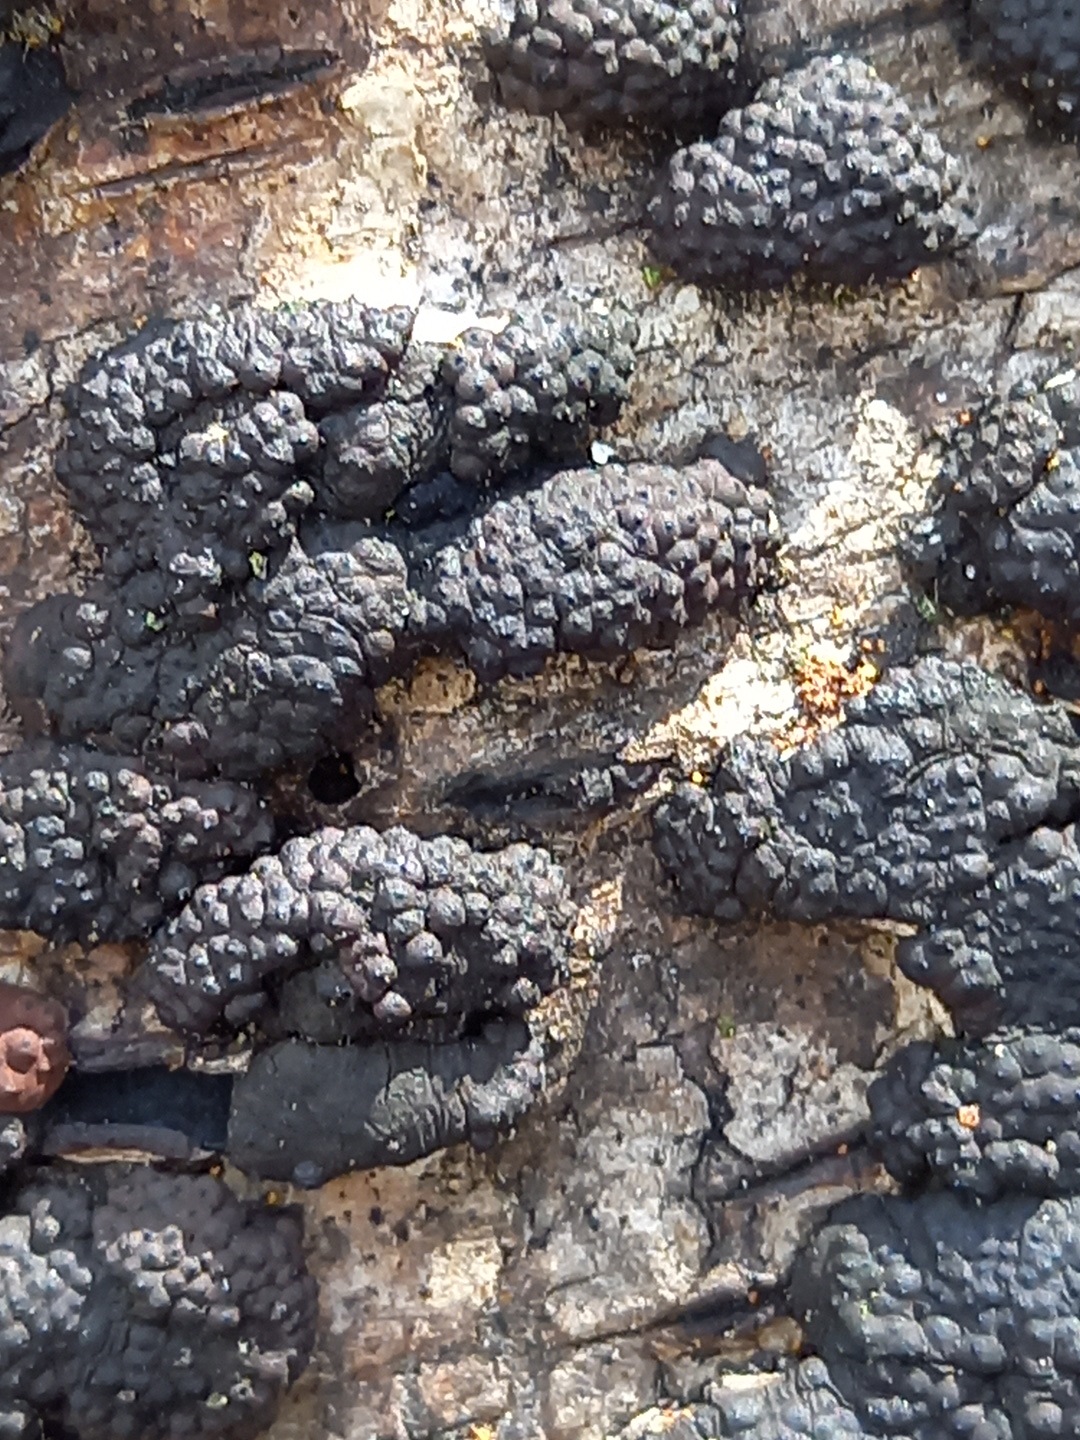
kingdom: Fungi
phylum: Ascomycota
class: Sordariomycetes
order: Xylariales
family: Hypoxylaceae
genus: Jackrogersella
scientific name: Jackrogersella multiformis
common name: foranderlig kulbær
